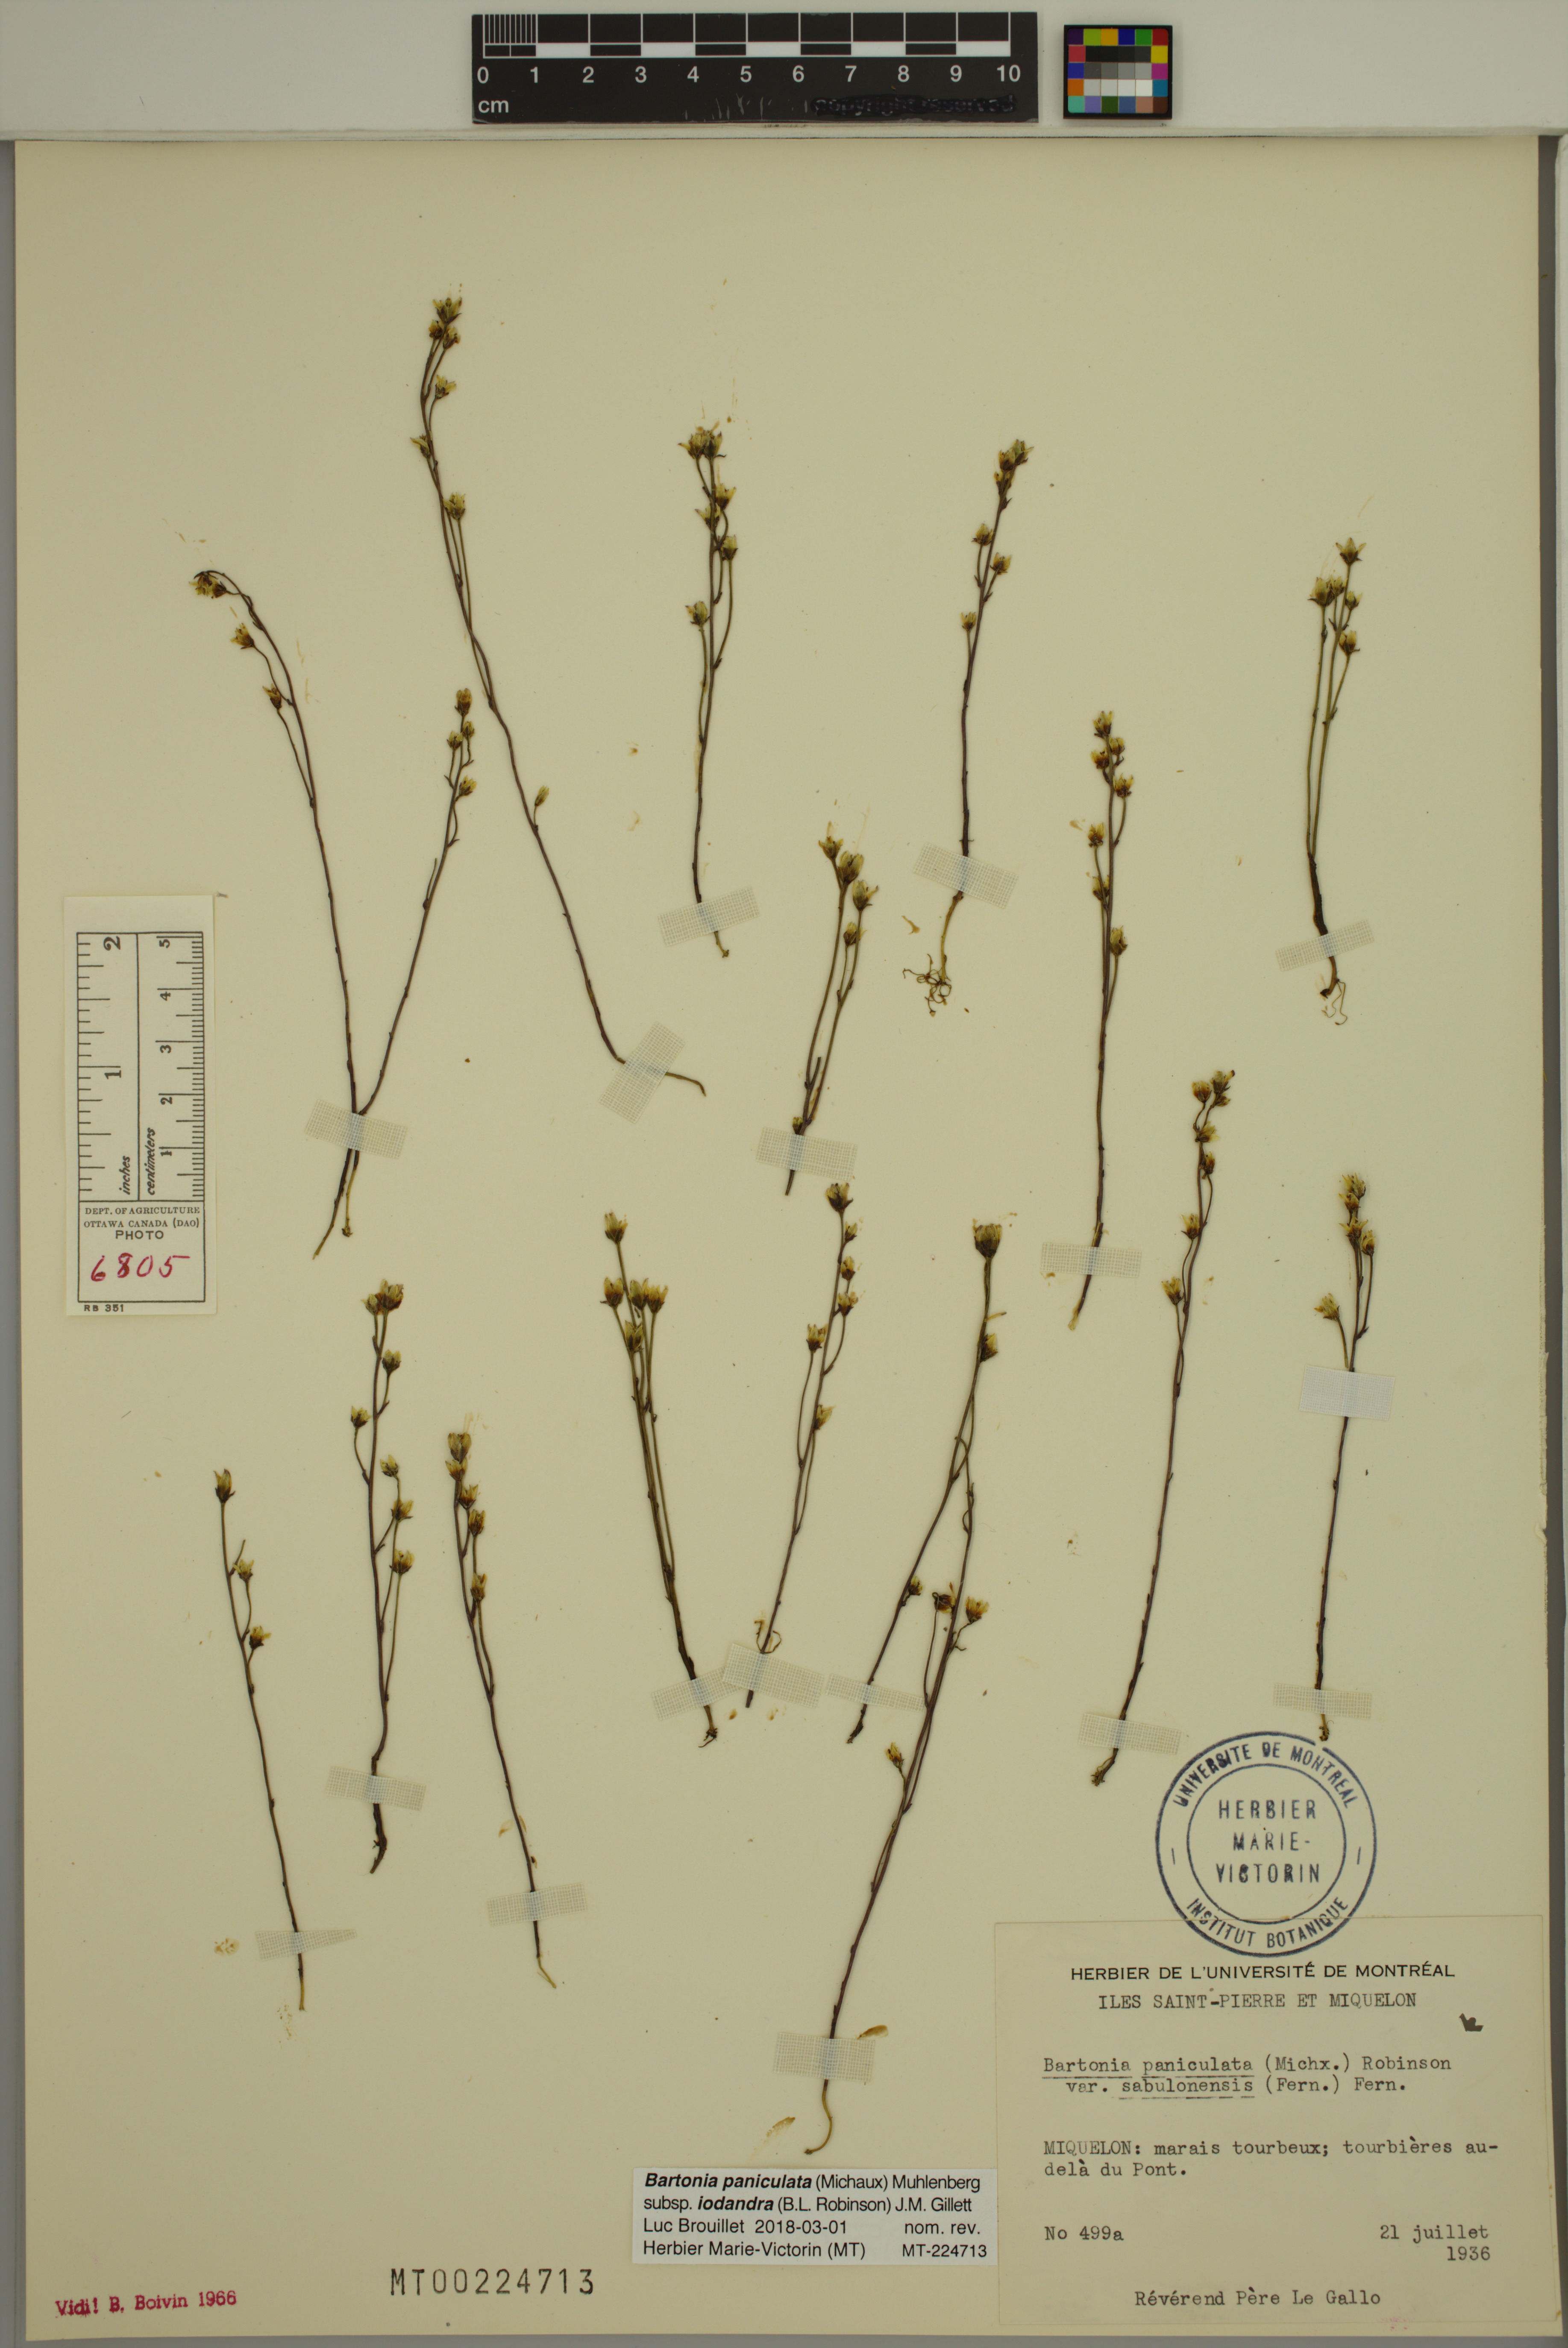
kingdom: Plantae
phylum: Tracheophyta
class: Magnoliopsida
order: Gentianales
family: Gentianaceae
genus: Bartonia
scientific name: Bartonia paniculata
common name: Branched bartonia
